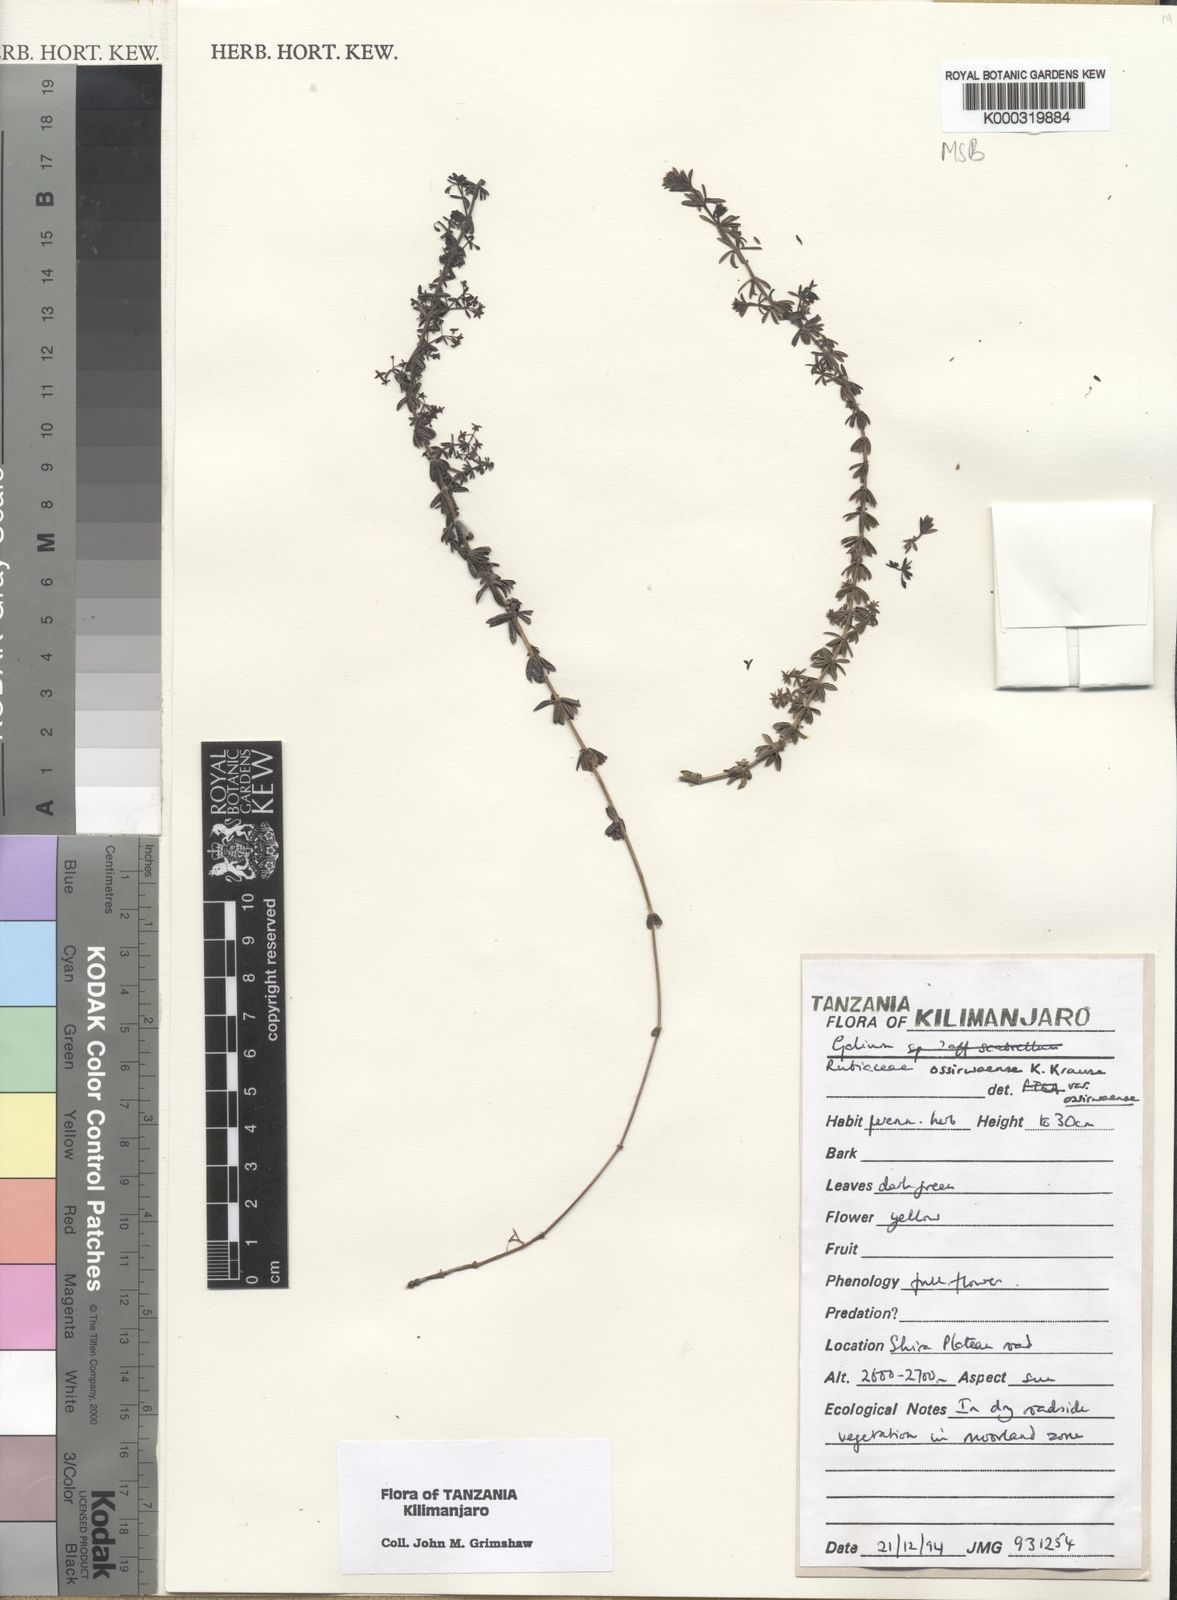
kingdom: Plantae
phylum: Tracheophyta
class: Magnoliopsida
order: Gentianales
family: Rubiaceae
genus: Galium
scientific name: Galium ossirwaense
